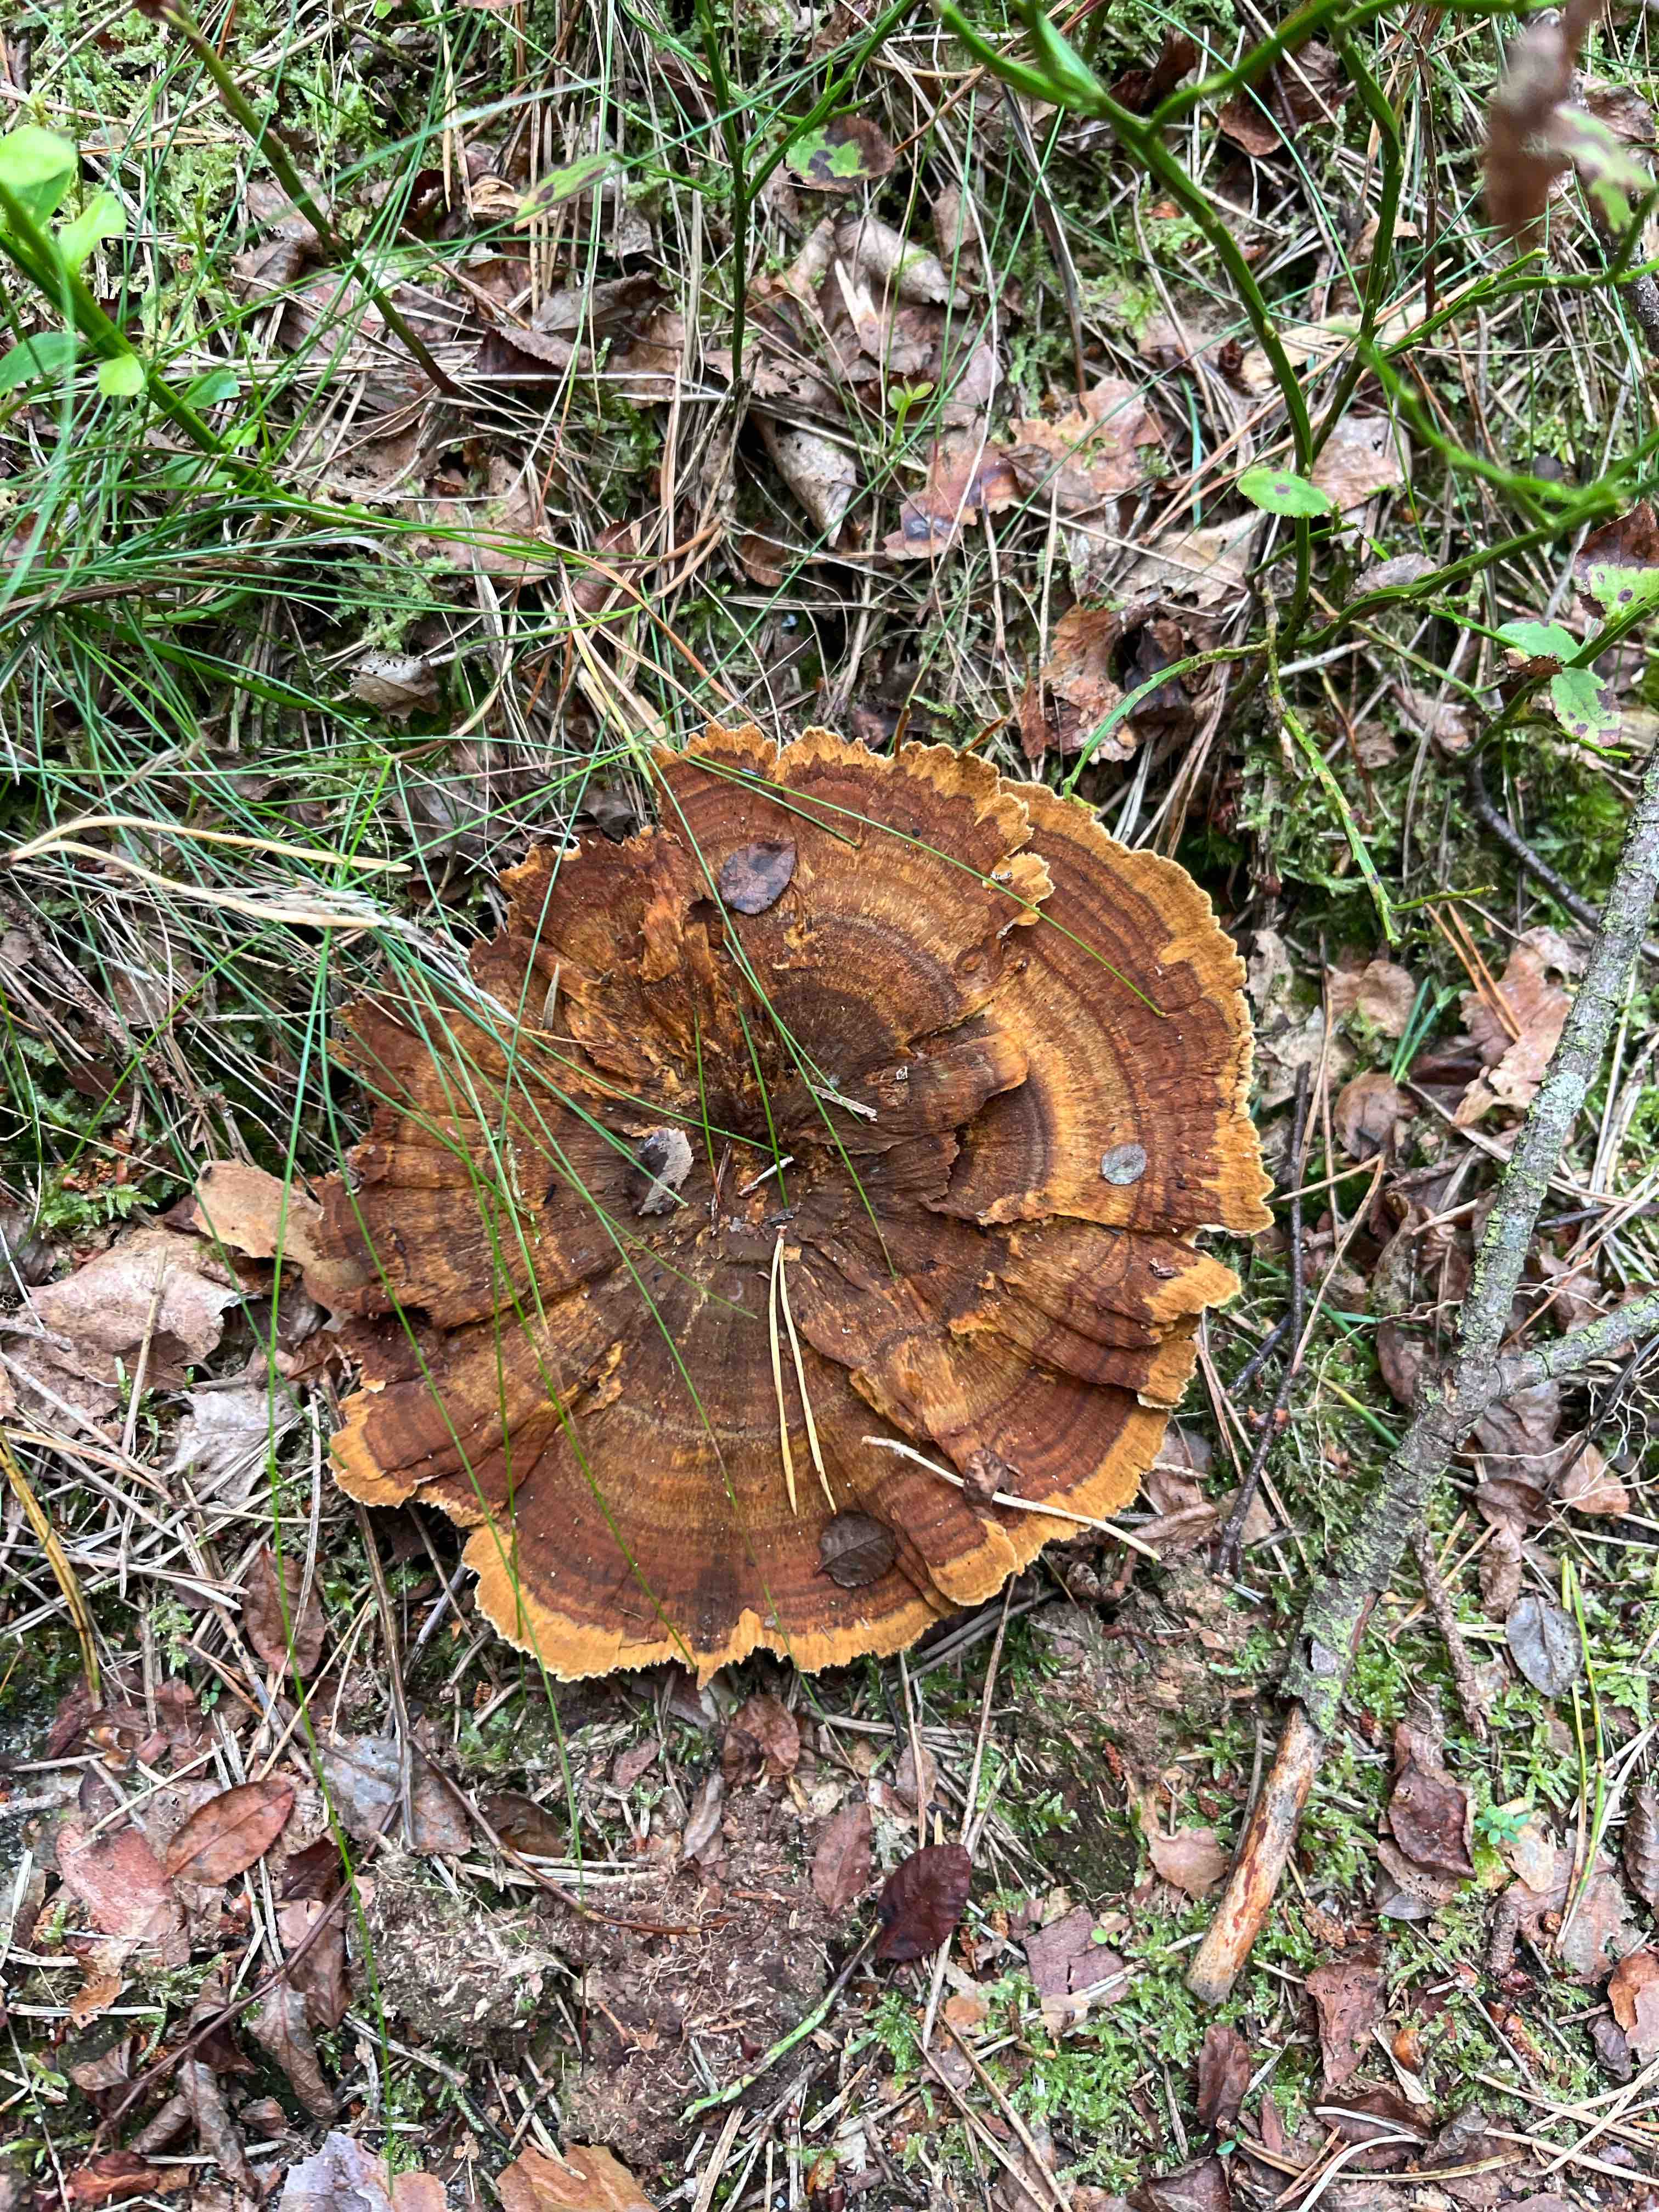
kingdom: Fungi
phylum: Basidiomycota
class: Agaricomycetes
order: Hymenochaetales
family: Hymenochaetaceae
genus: Coltricia
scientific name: Coltricia perennis
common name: almindelig sandporesvamp
